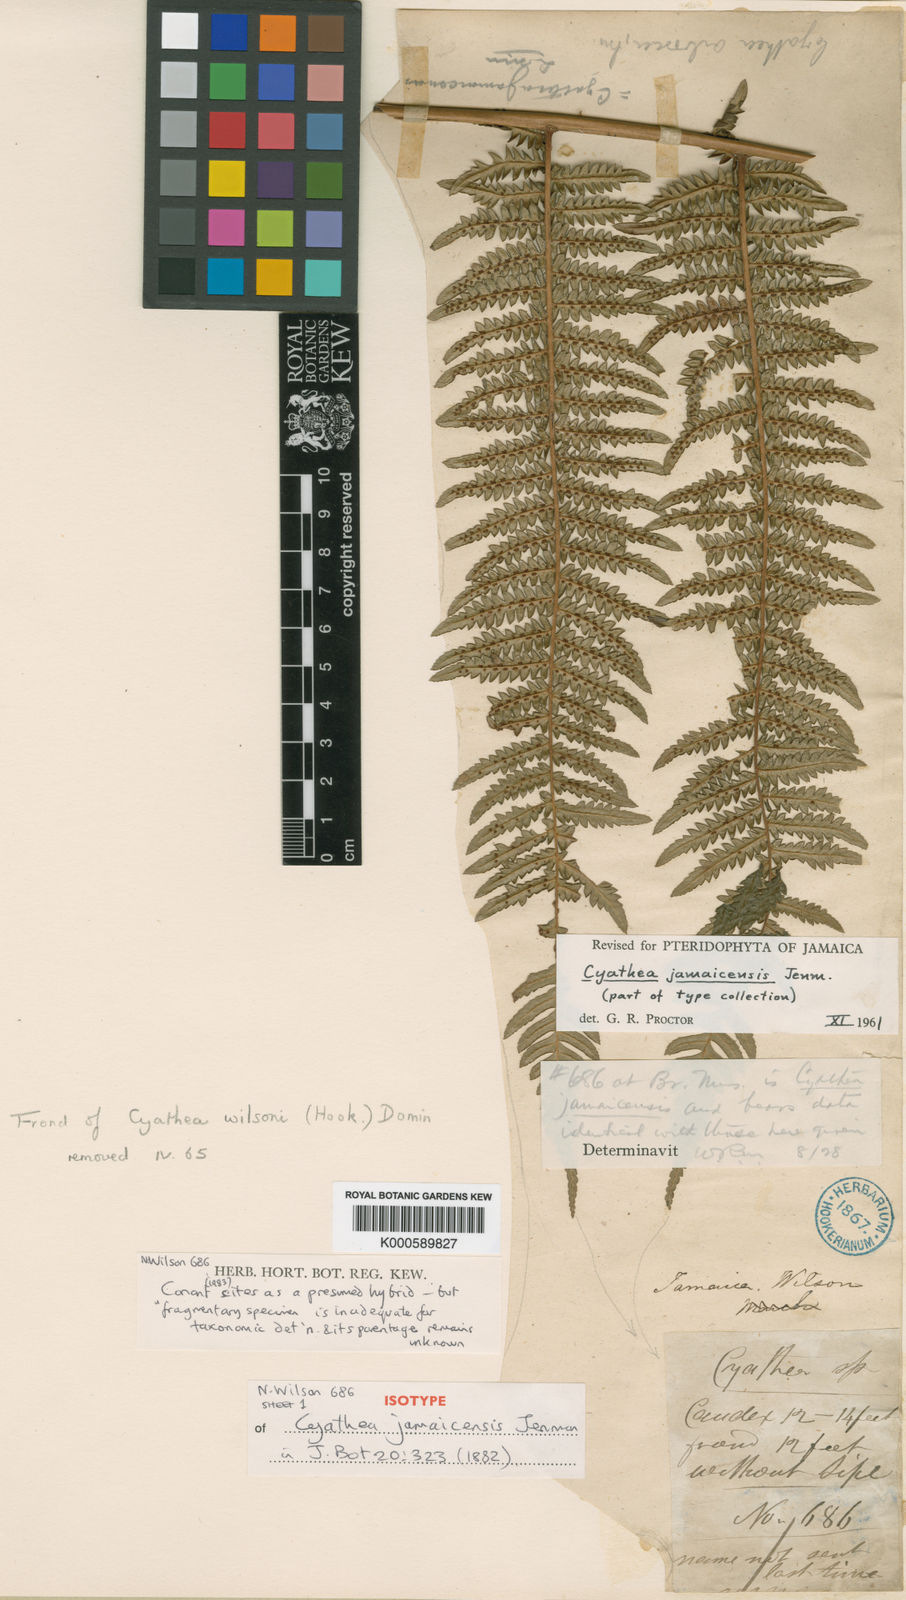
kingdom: Plantae
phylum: Tracheophyta
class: Polypodiopsida
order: Cyatheales
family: Cyatheaceae
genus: Cyathea
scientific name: Cyathea jamaicensis
